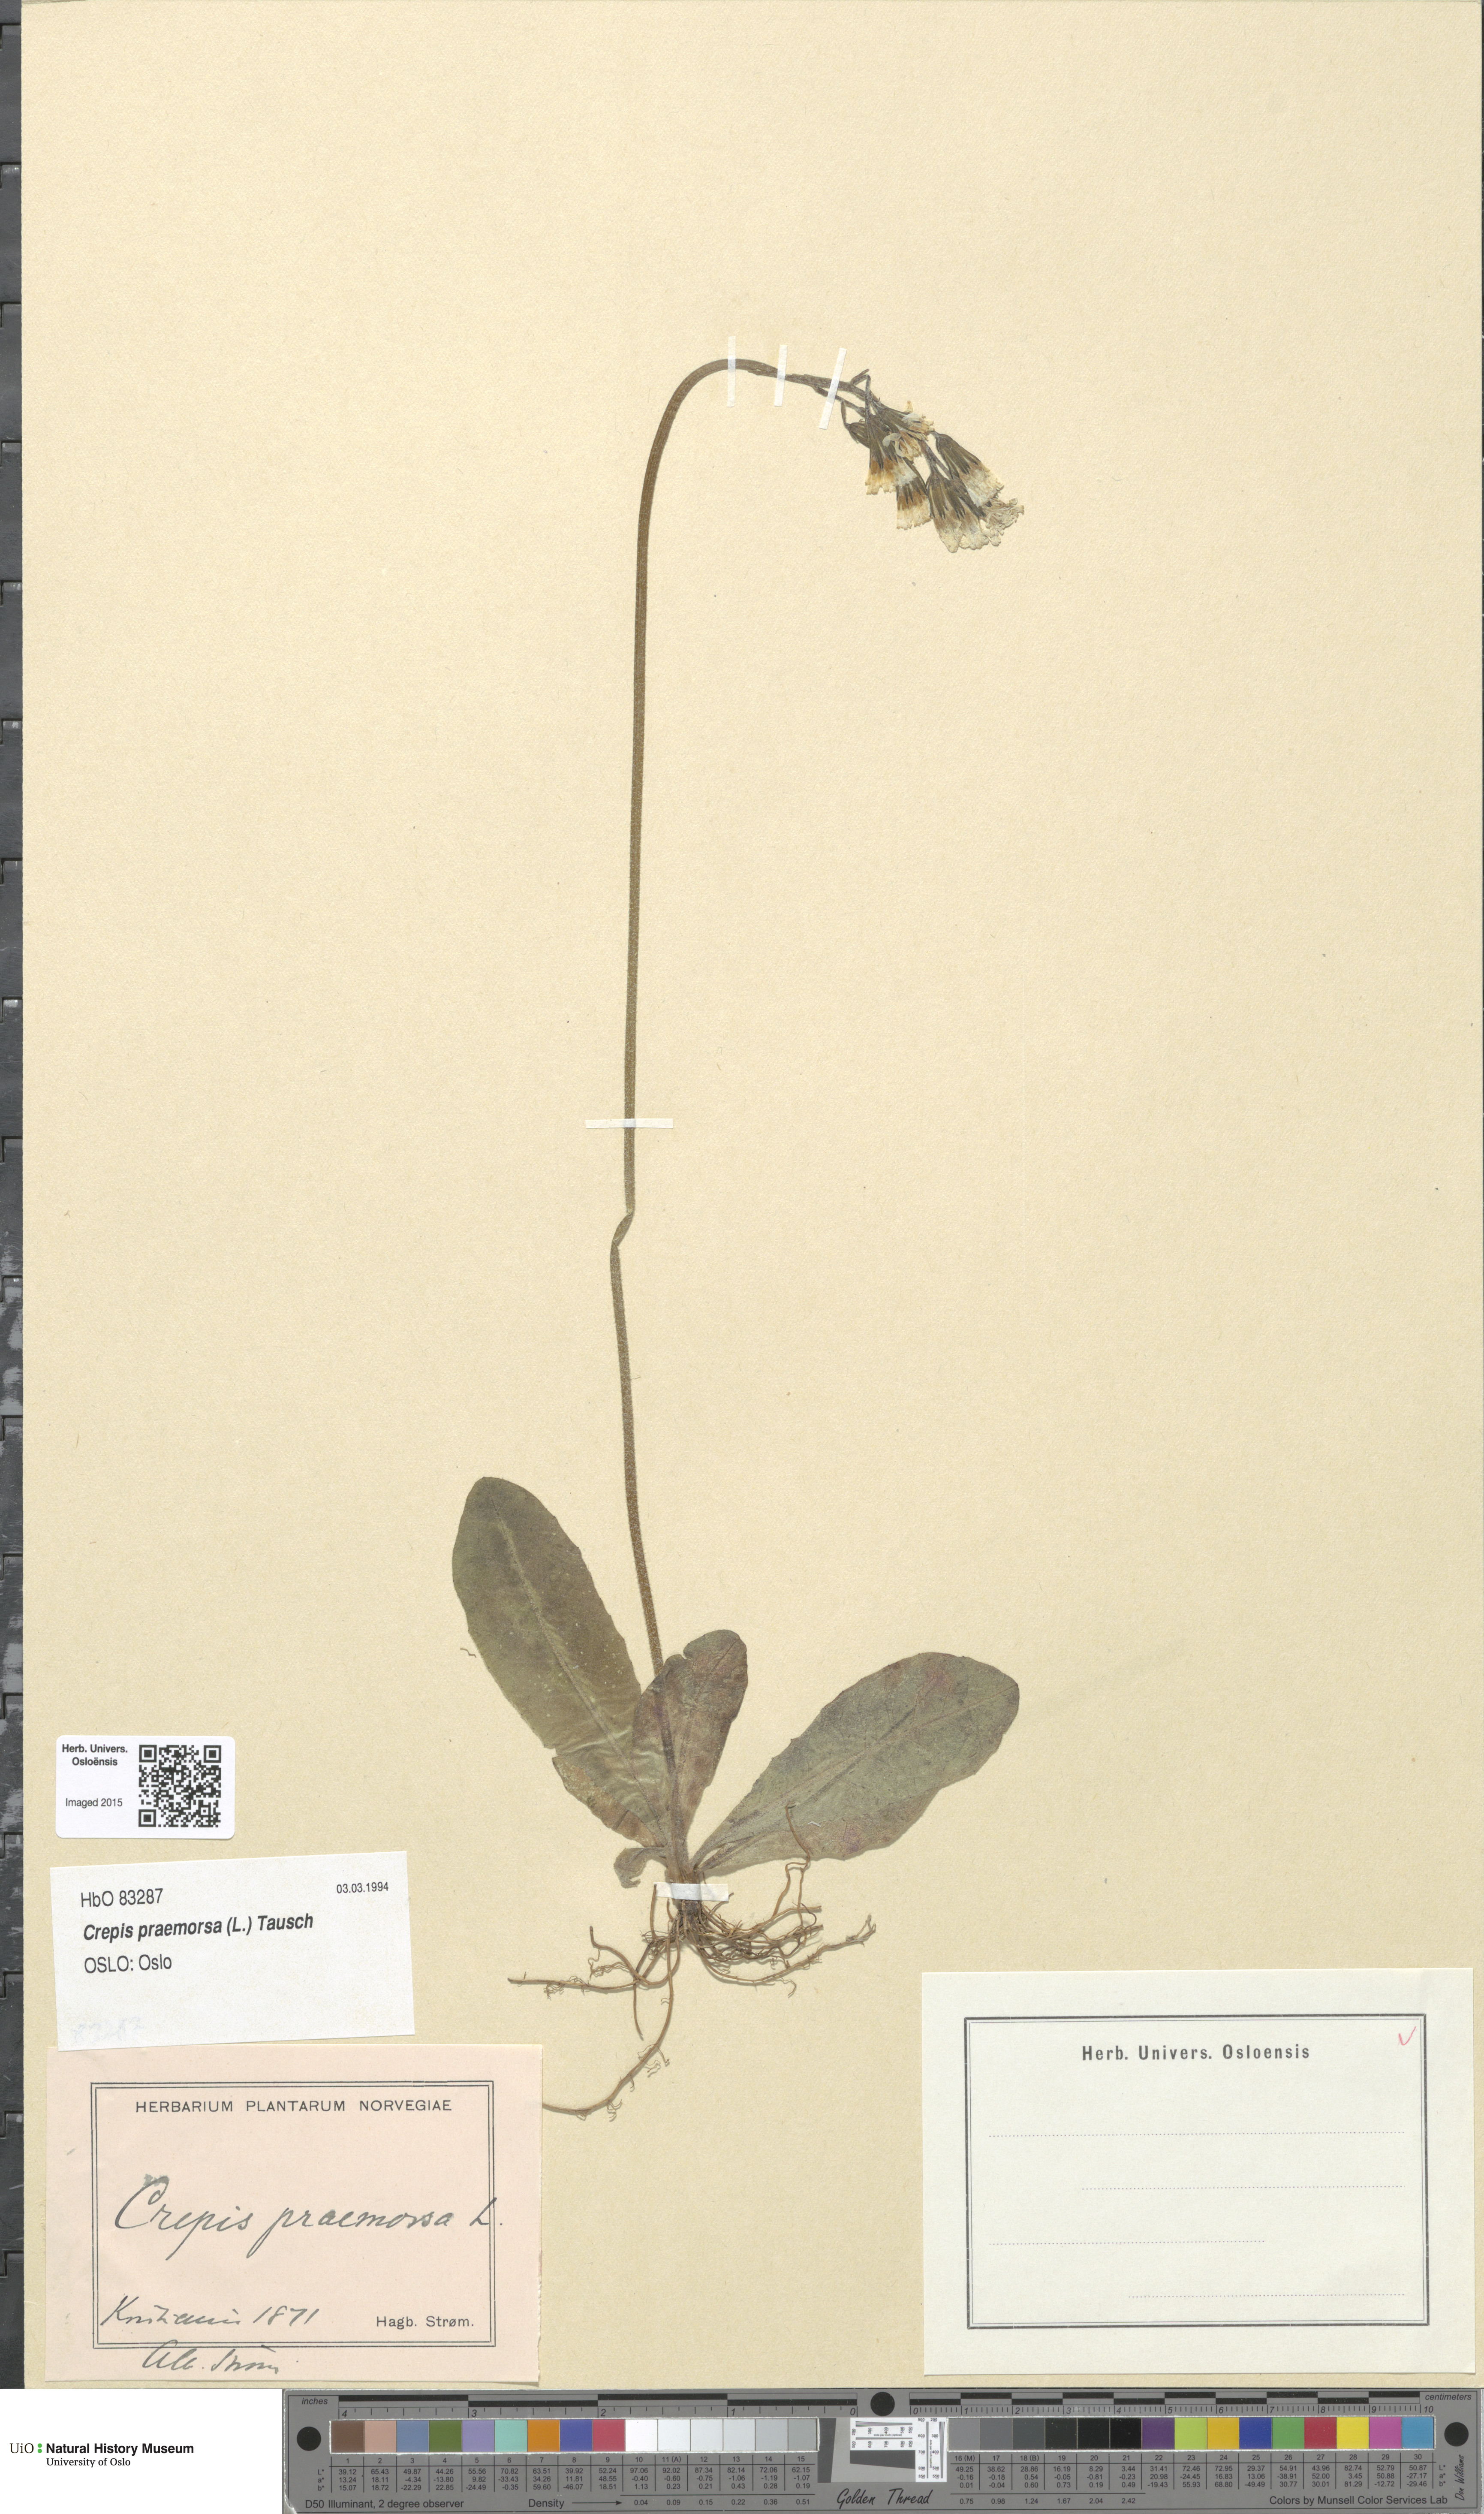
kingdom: Plantae
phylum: Tracheophyta
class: Magnoliopsida
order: Asterales
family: Asteraceae
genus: Crepis
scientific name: Crepis praemorsa
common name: Leafless hawk's-beard
